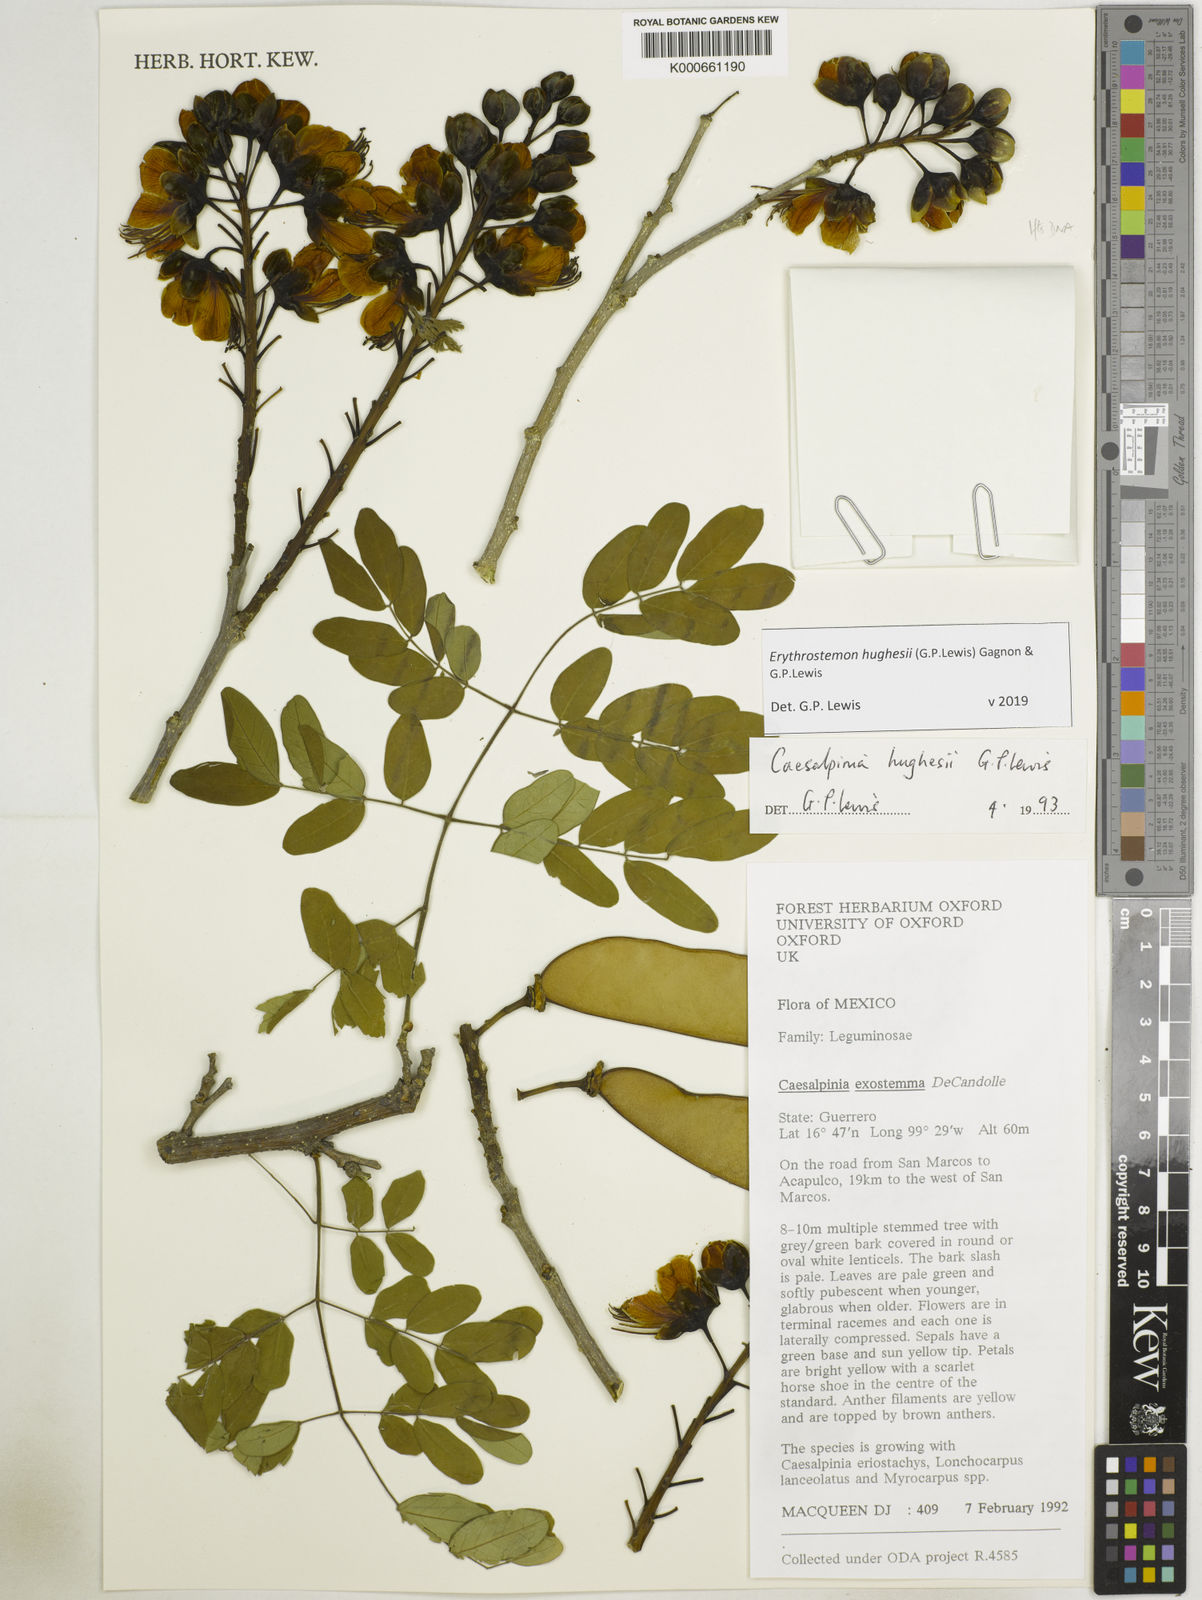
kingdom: Plantae
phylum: Tracheophyta
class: Magnoliopsida
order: Fabales
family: Fabaceae
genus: Erythrostemon
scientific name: Erythrostemon hughesii
